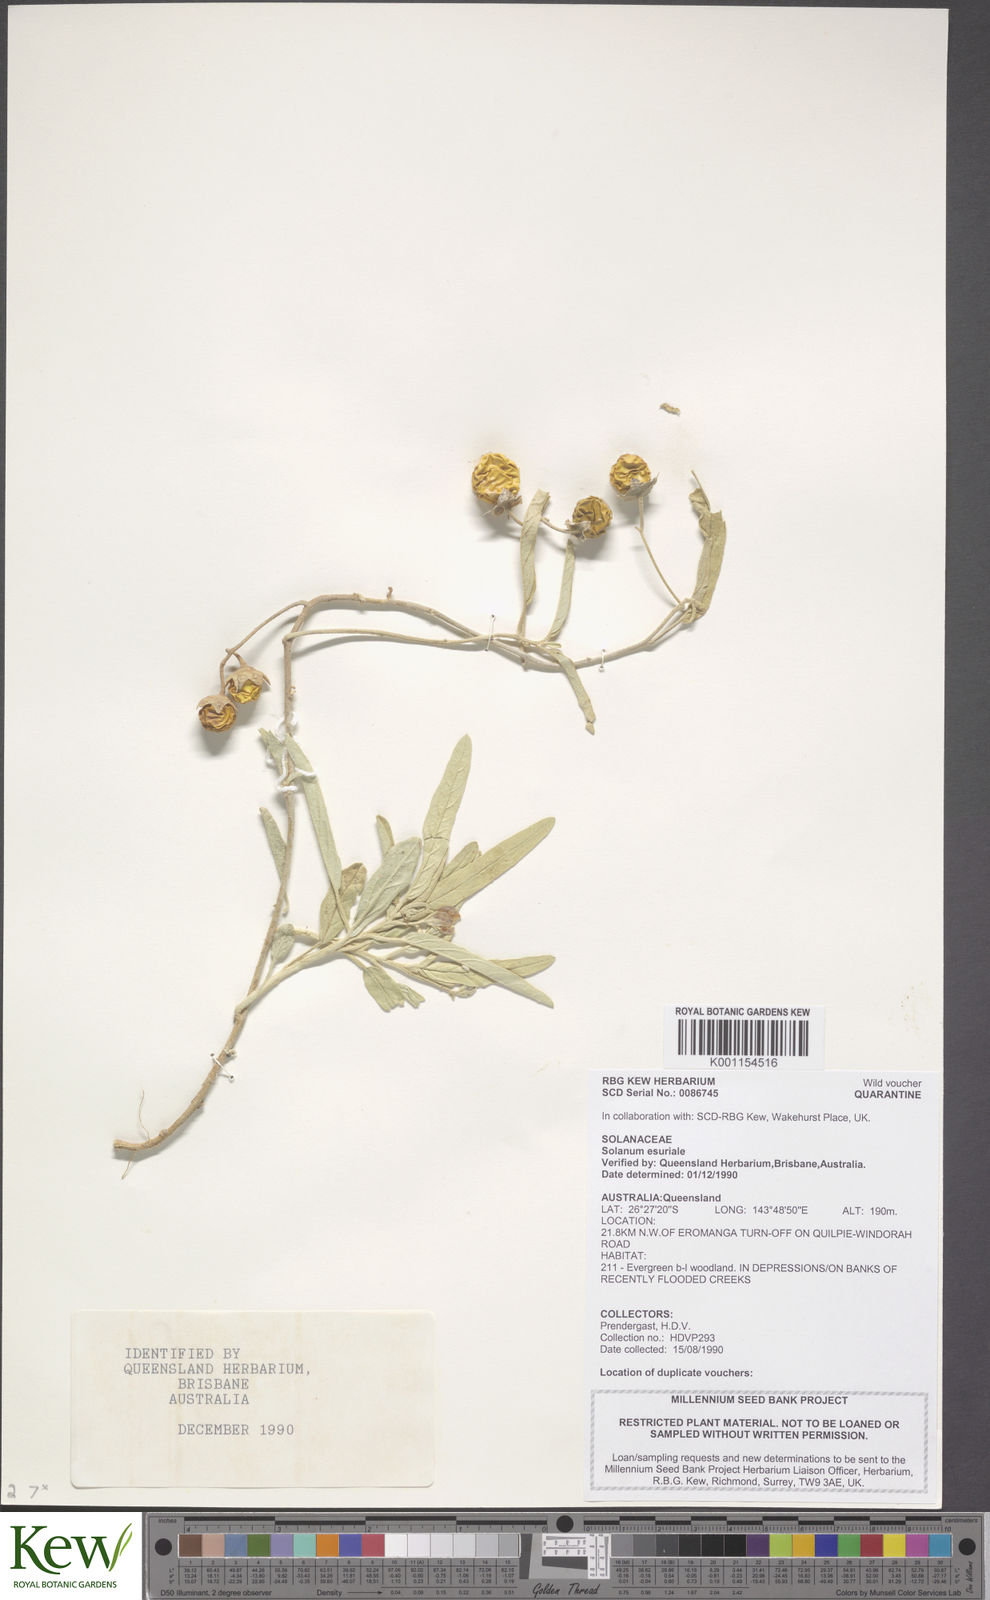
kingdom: Plantae
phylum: Tracheophyta
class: Magnoliopsida
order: Solanales
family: Solanaceae
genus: Solanum
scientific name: Solanum esuriale
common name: Wild tomato
